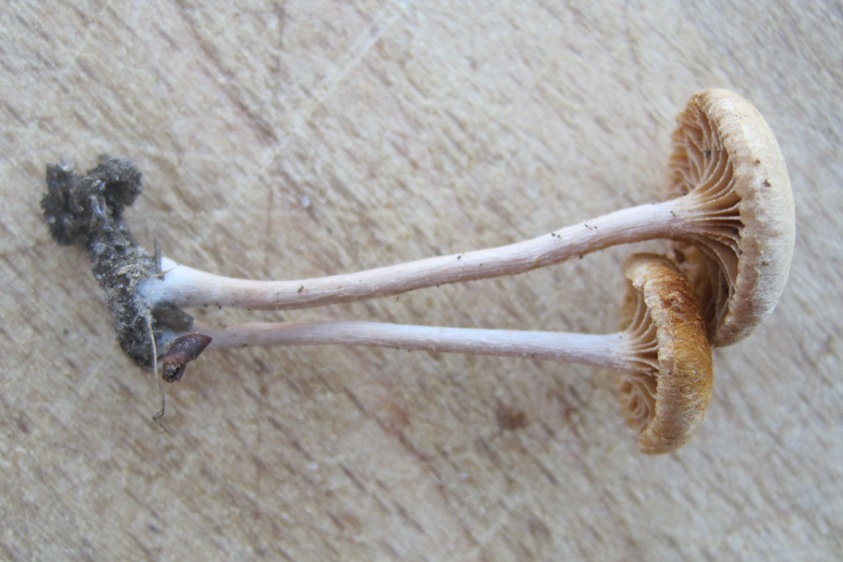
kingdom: Fungi
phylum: Basidiomycota
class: Agaricomycetes
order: Agaricales
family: Tubariaceae
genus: Tubaria
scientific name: Tubaria conspersa
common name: bleg fnughat
